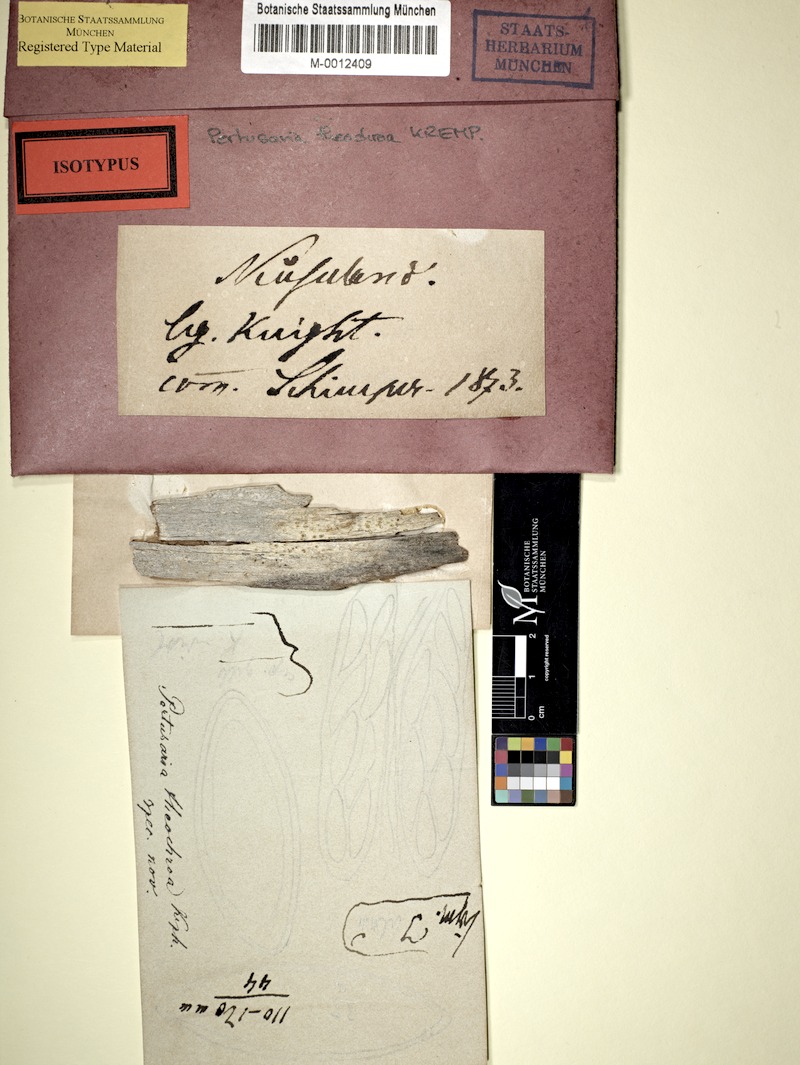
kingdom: Fungi
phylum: Ascomycota
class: Lecanoromycetes
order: Pertusariales
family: Pertusariaceae
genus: Pertusaria
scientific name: Pertusaria
